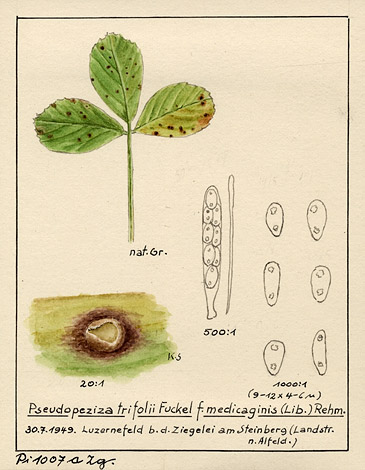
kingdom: Fungi
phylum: Ascomycota
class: Leotiomycetes
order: Helotiales
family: Drepanopezizaceae
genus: Pseudopeziza
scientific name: Pseudopeziza trifolii
